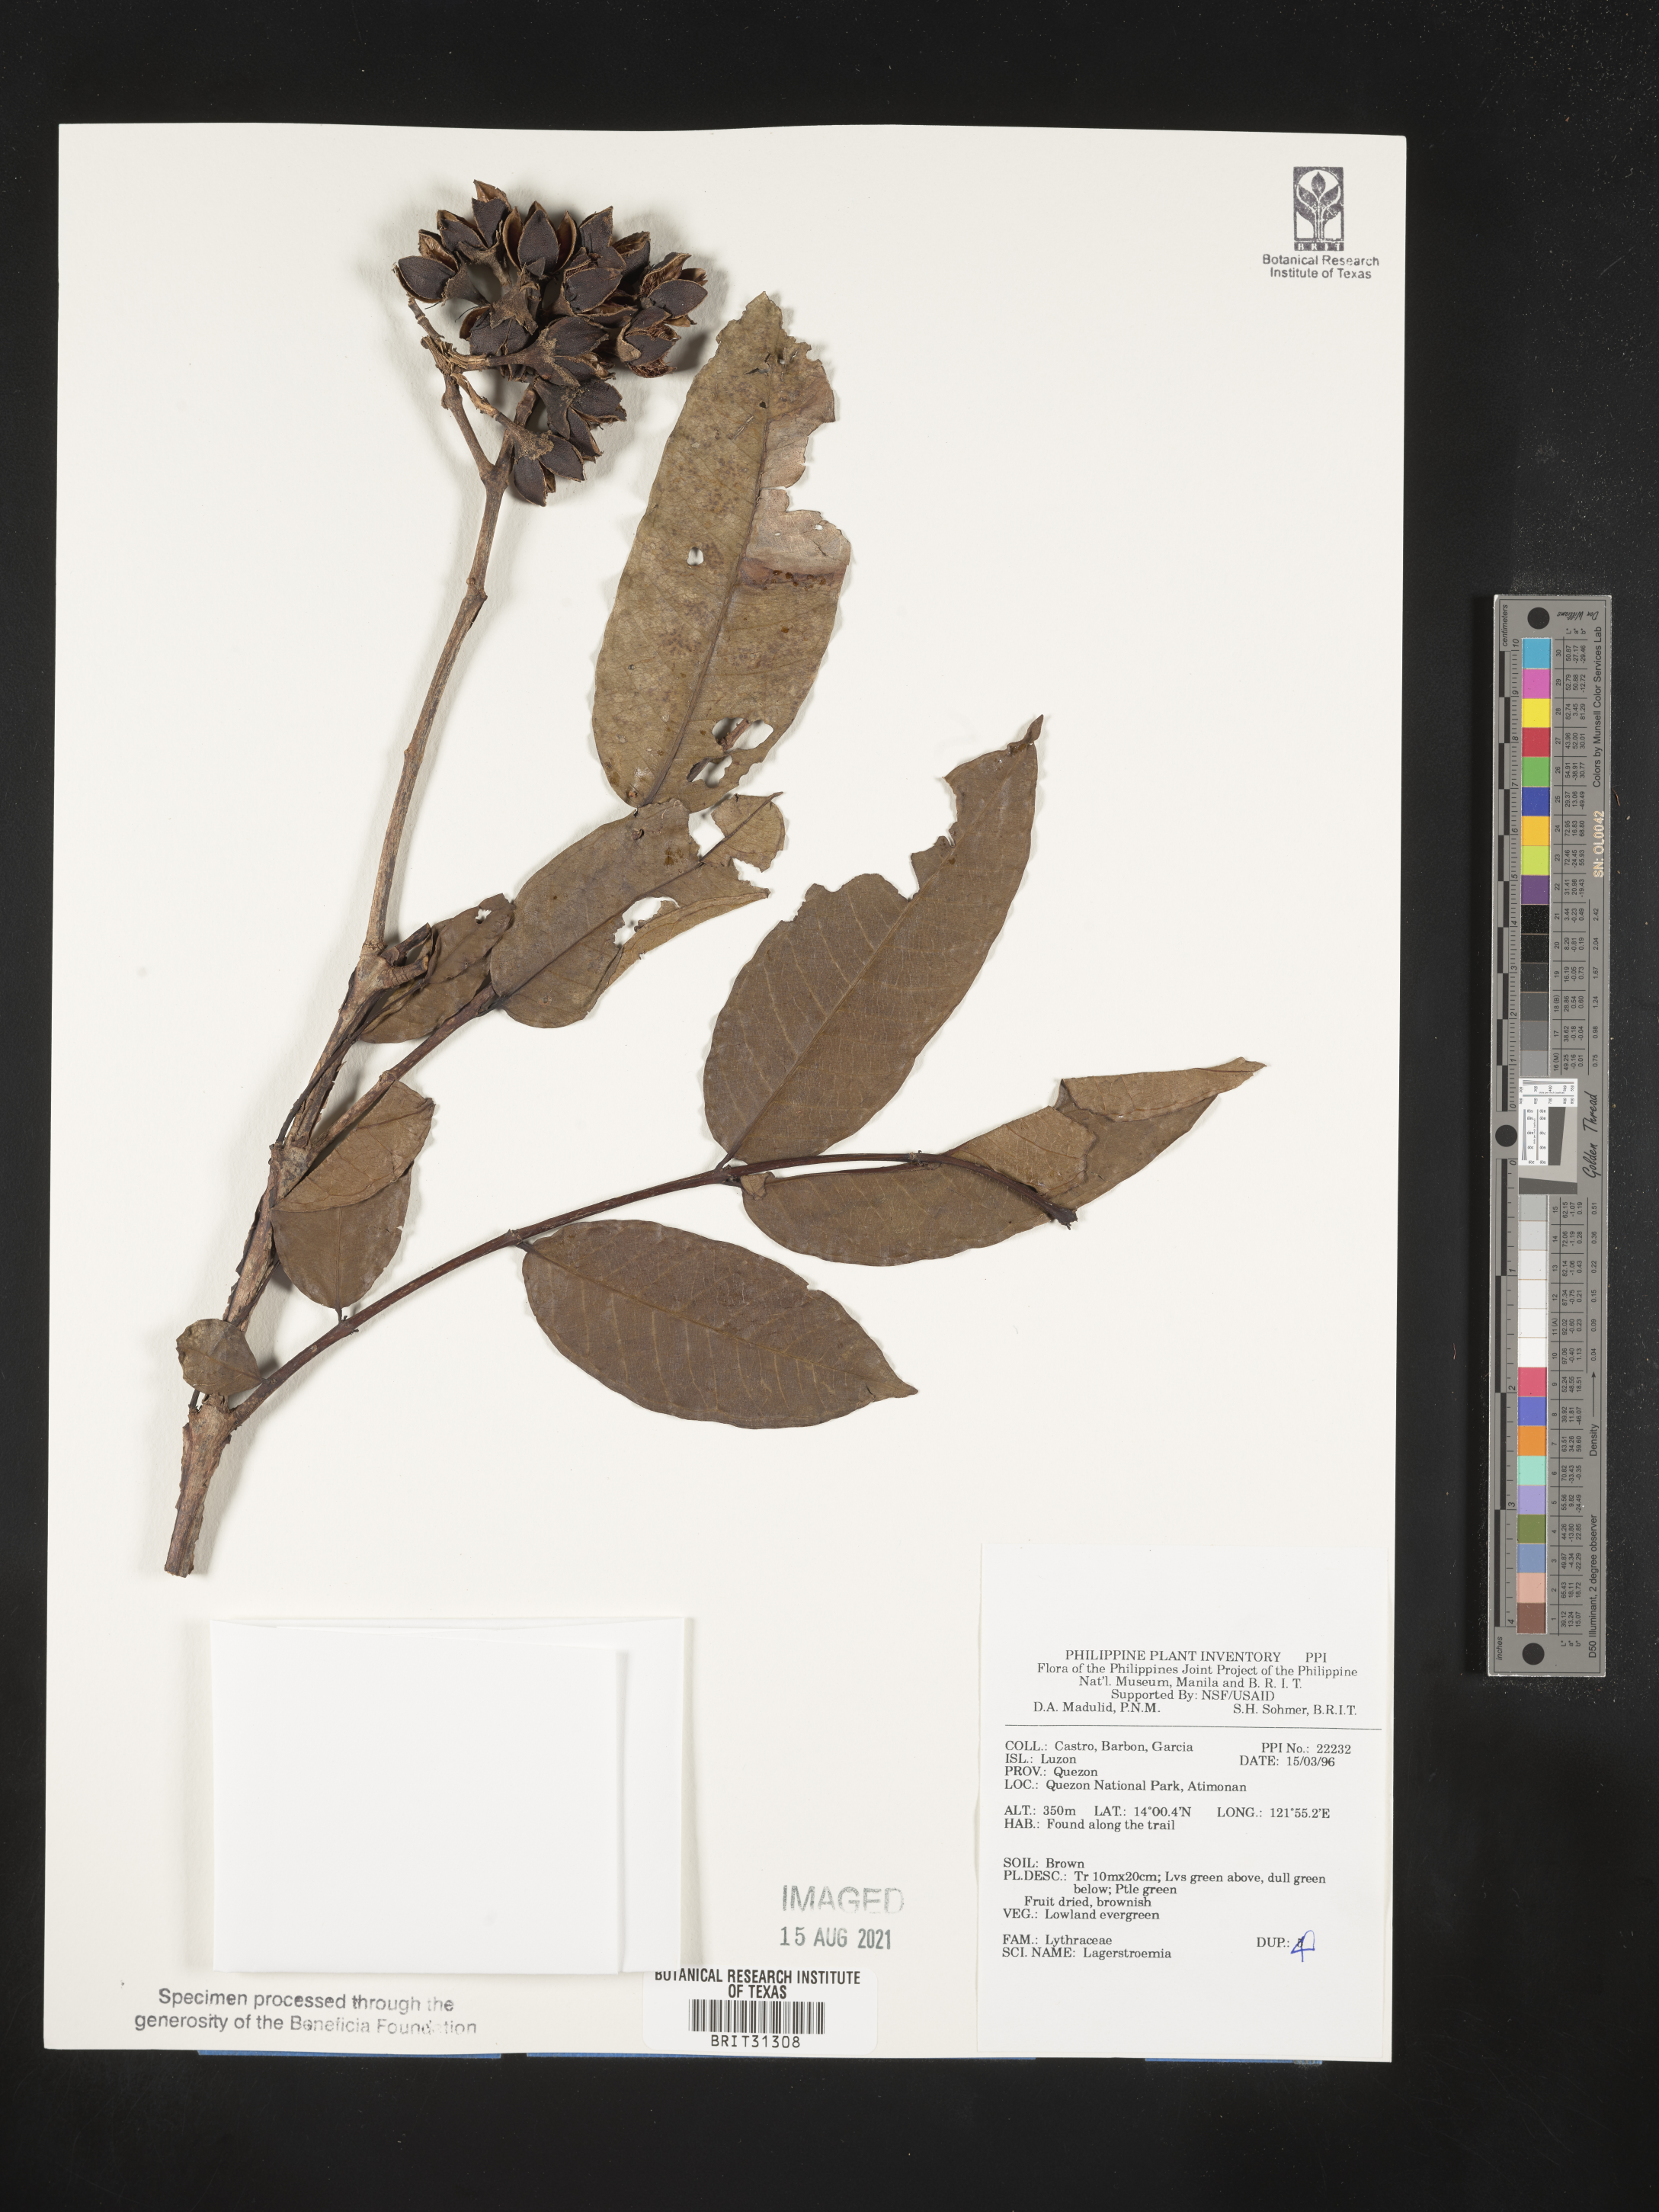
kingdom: Plantae
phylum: Tracheophyta
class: Magnoliopsida
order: Myrtales
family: Lythraceae
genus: Lagerstroemia
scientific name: Lagerstroemia
